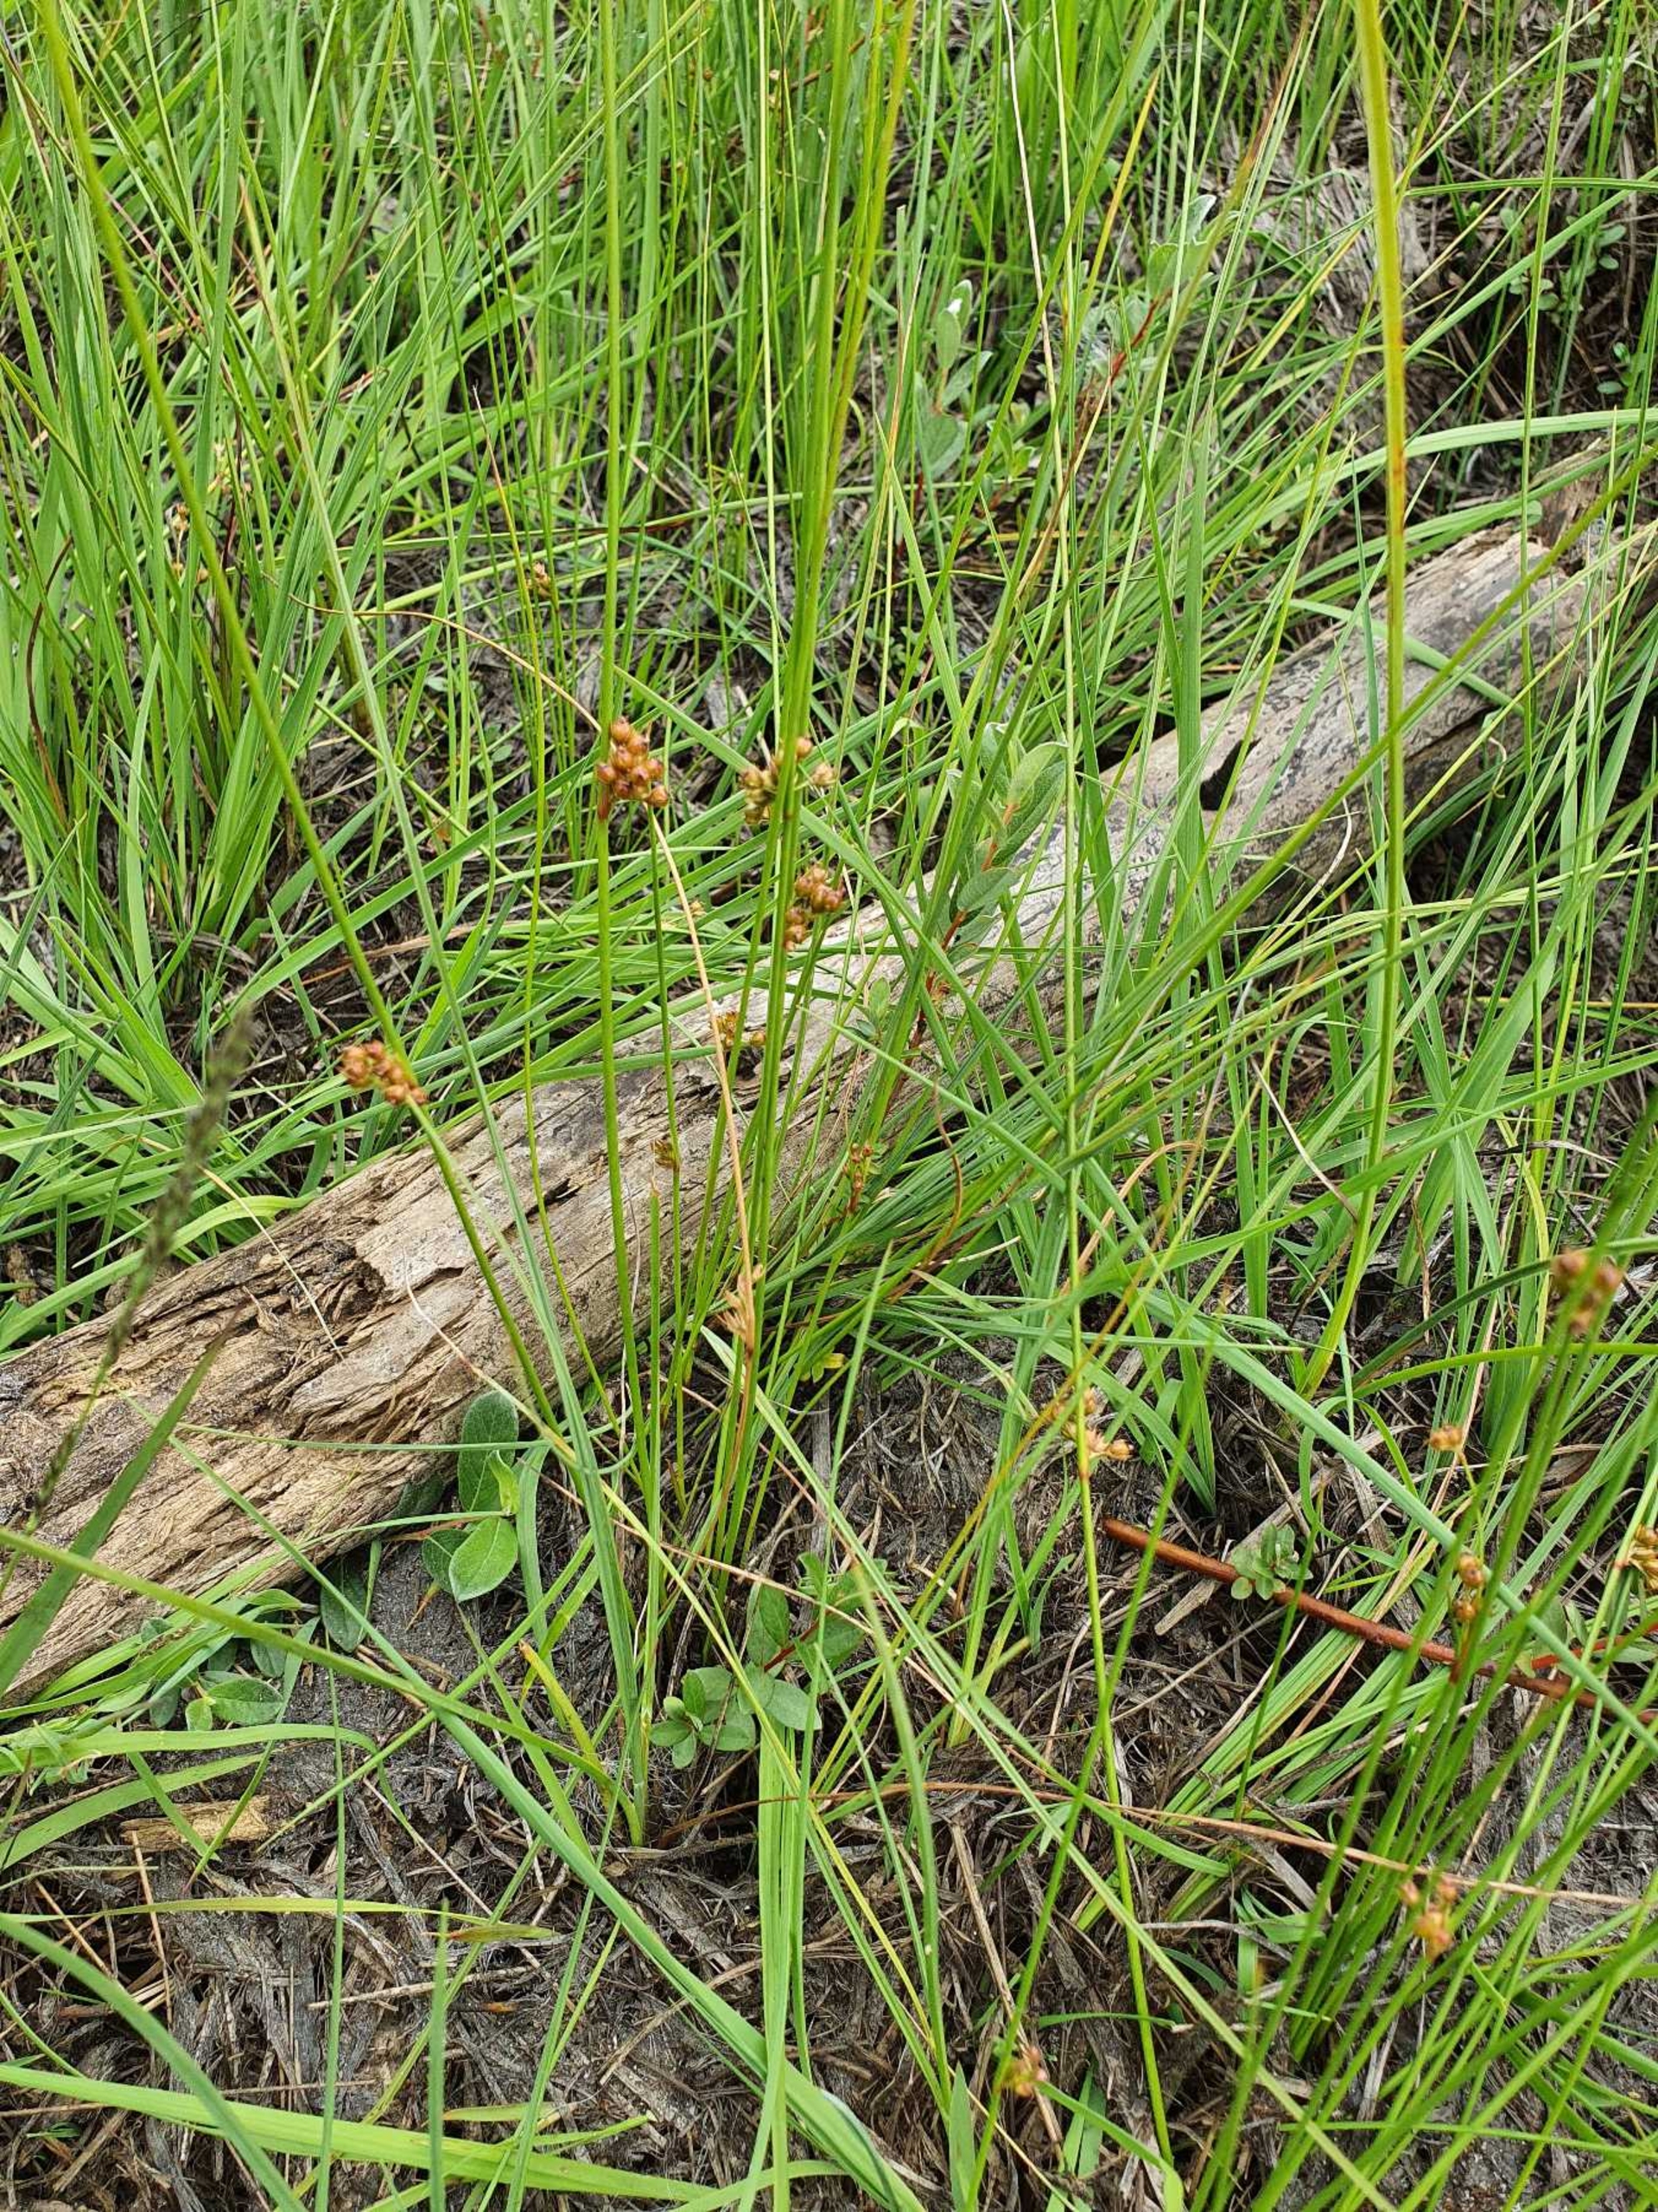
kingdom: Plantae
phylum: Tracheophyta
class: Liliopsida
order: Poales
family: Juncaceae
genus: Juncus
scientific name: Juncus filiformis
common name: Tråd-siv
